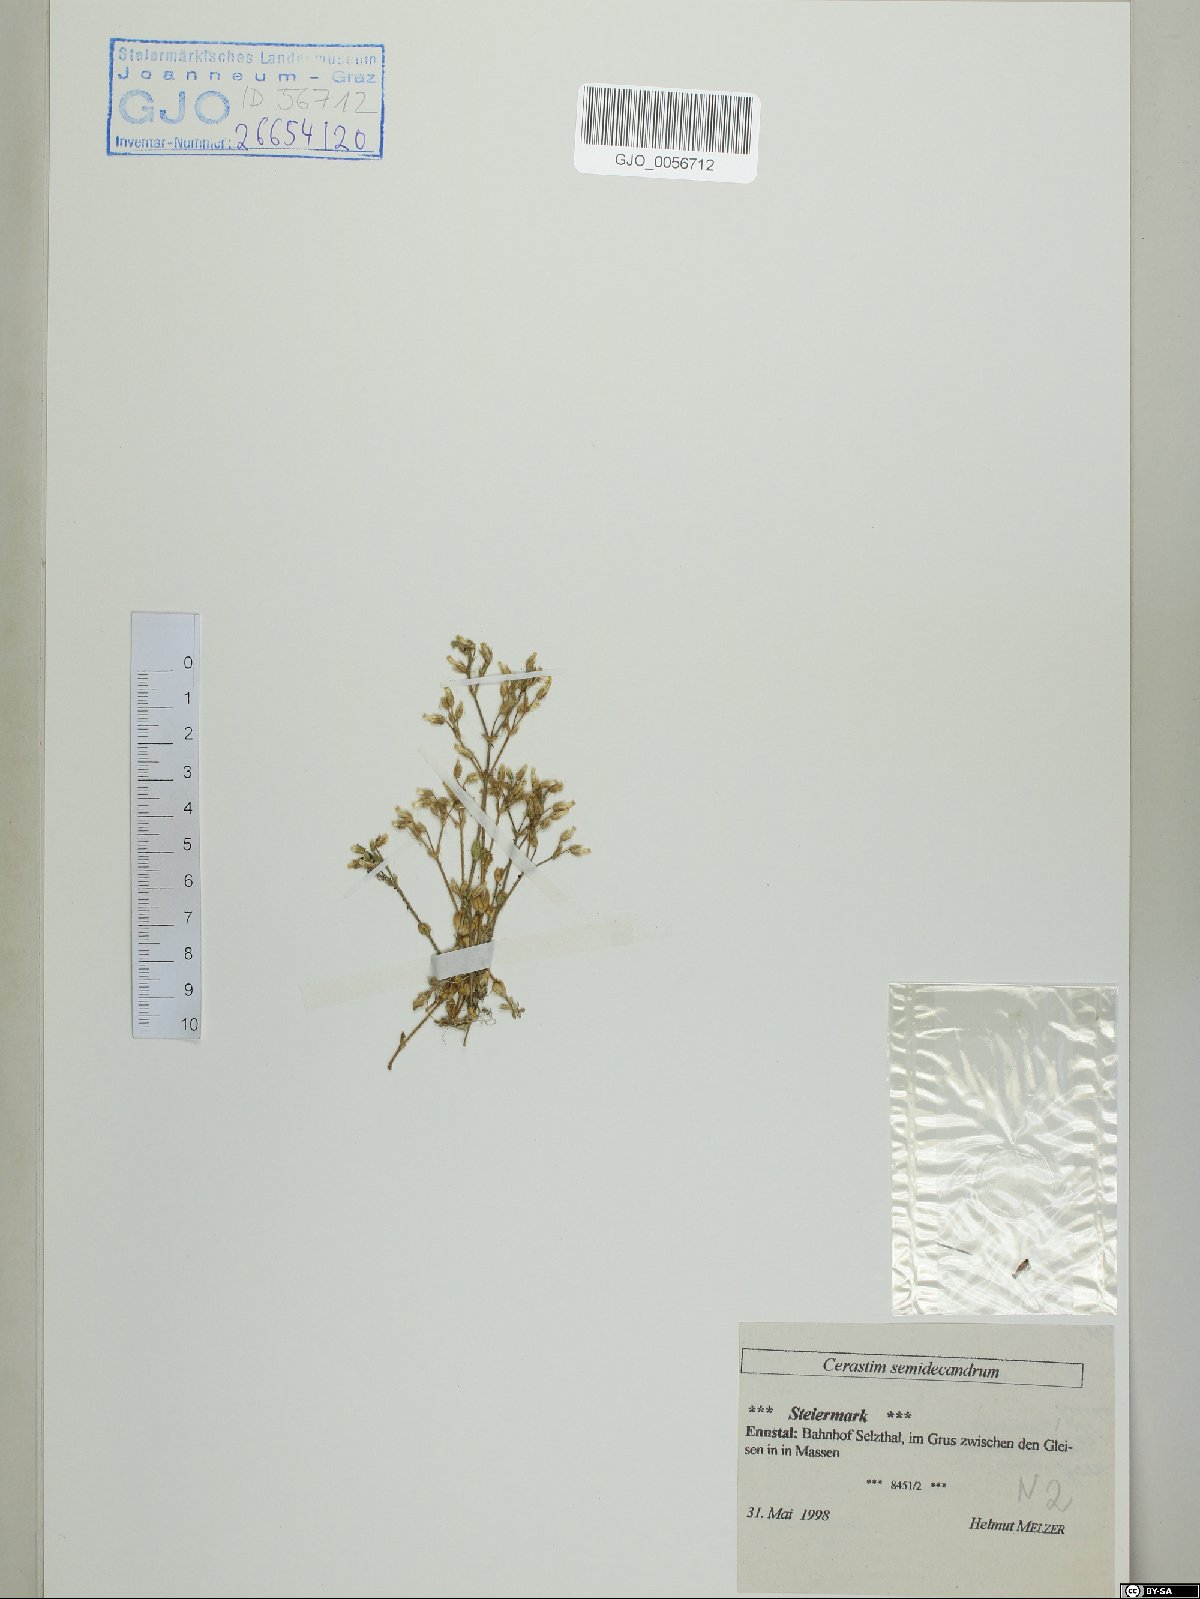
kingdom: Plantae
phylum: Tracheophyta
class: Magnoliopsida
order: Caryophyllales
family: Caryophyllaceae
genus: Cerastium
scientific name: Cerastium semidecandrum
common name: Little mouse-ear
